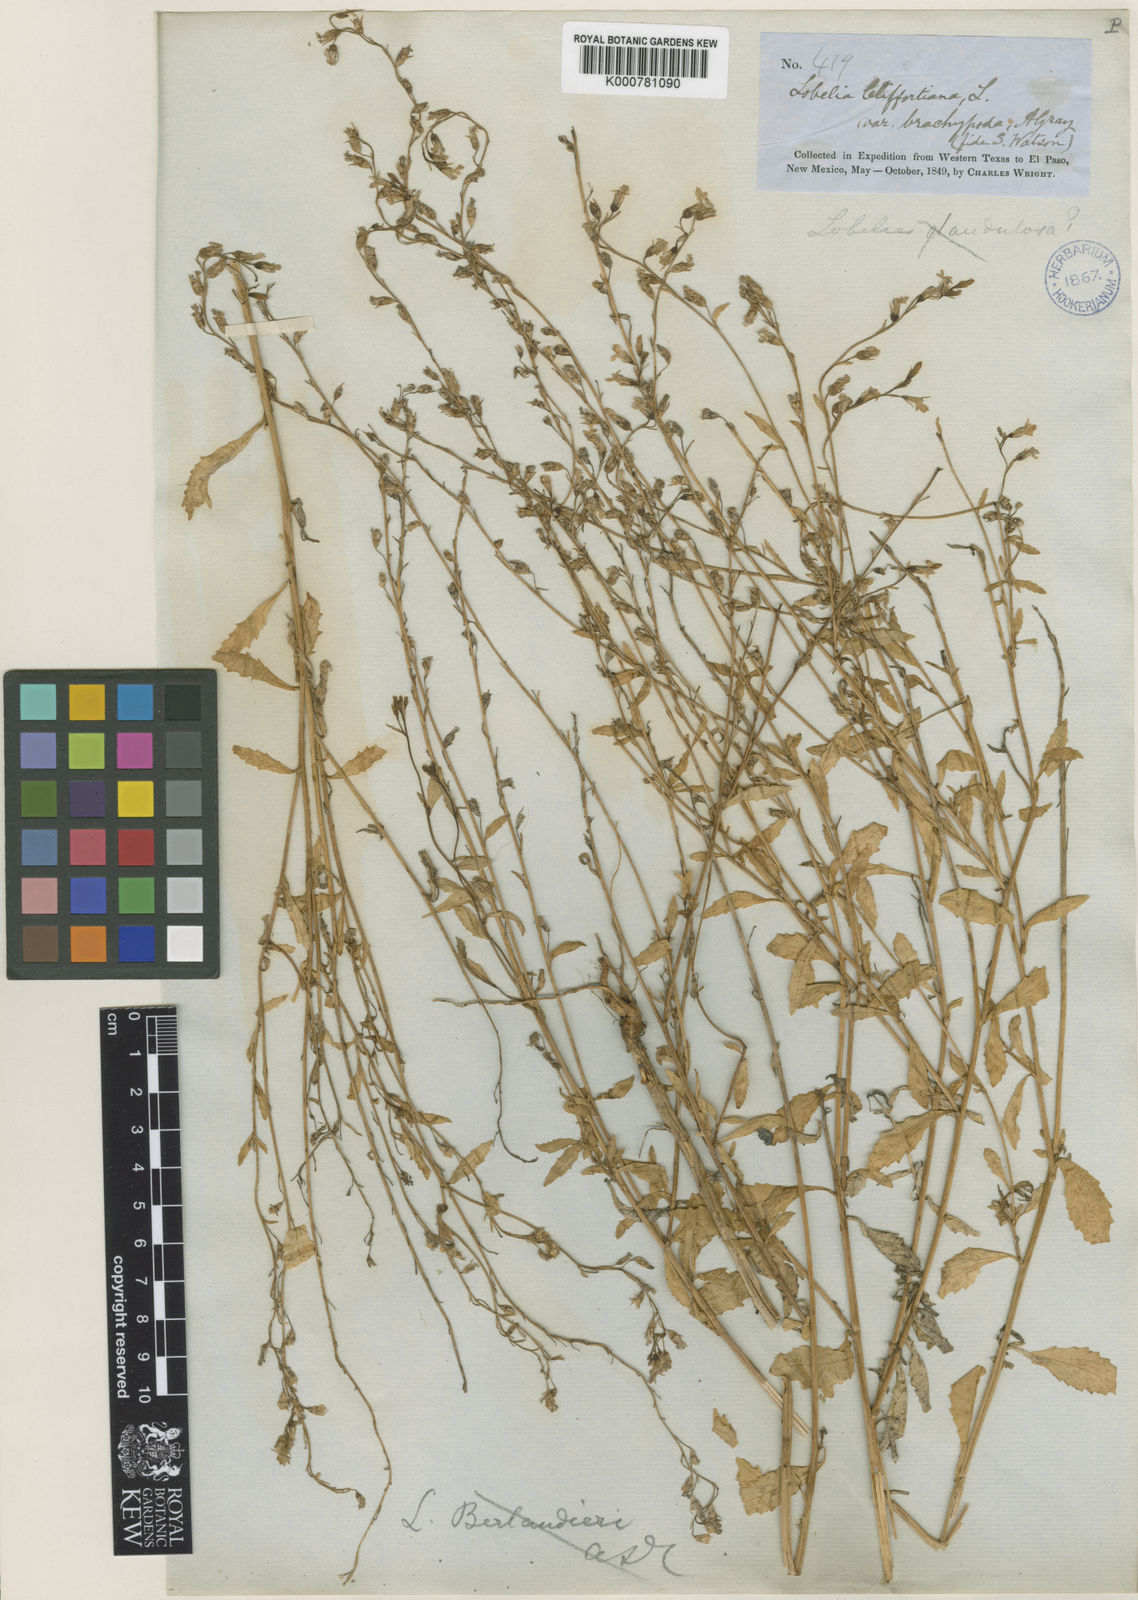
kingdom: Plantae
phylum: Tracheophyta
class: Magnoliopsida
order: Asterales
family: Campanulaceae
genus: Lobelia
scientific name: Lobelia
